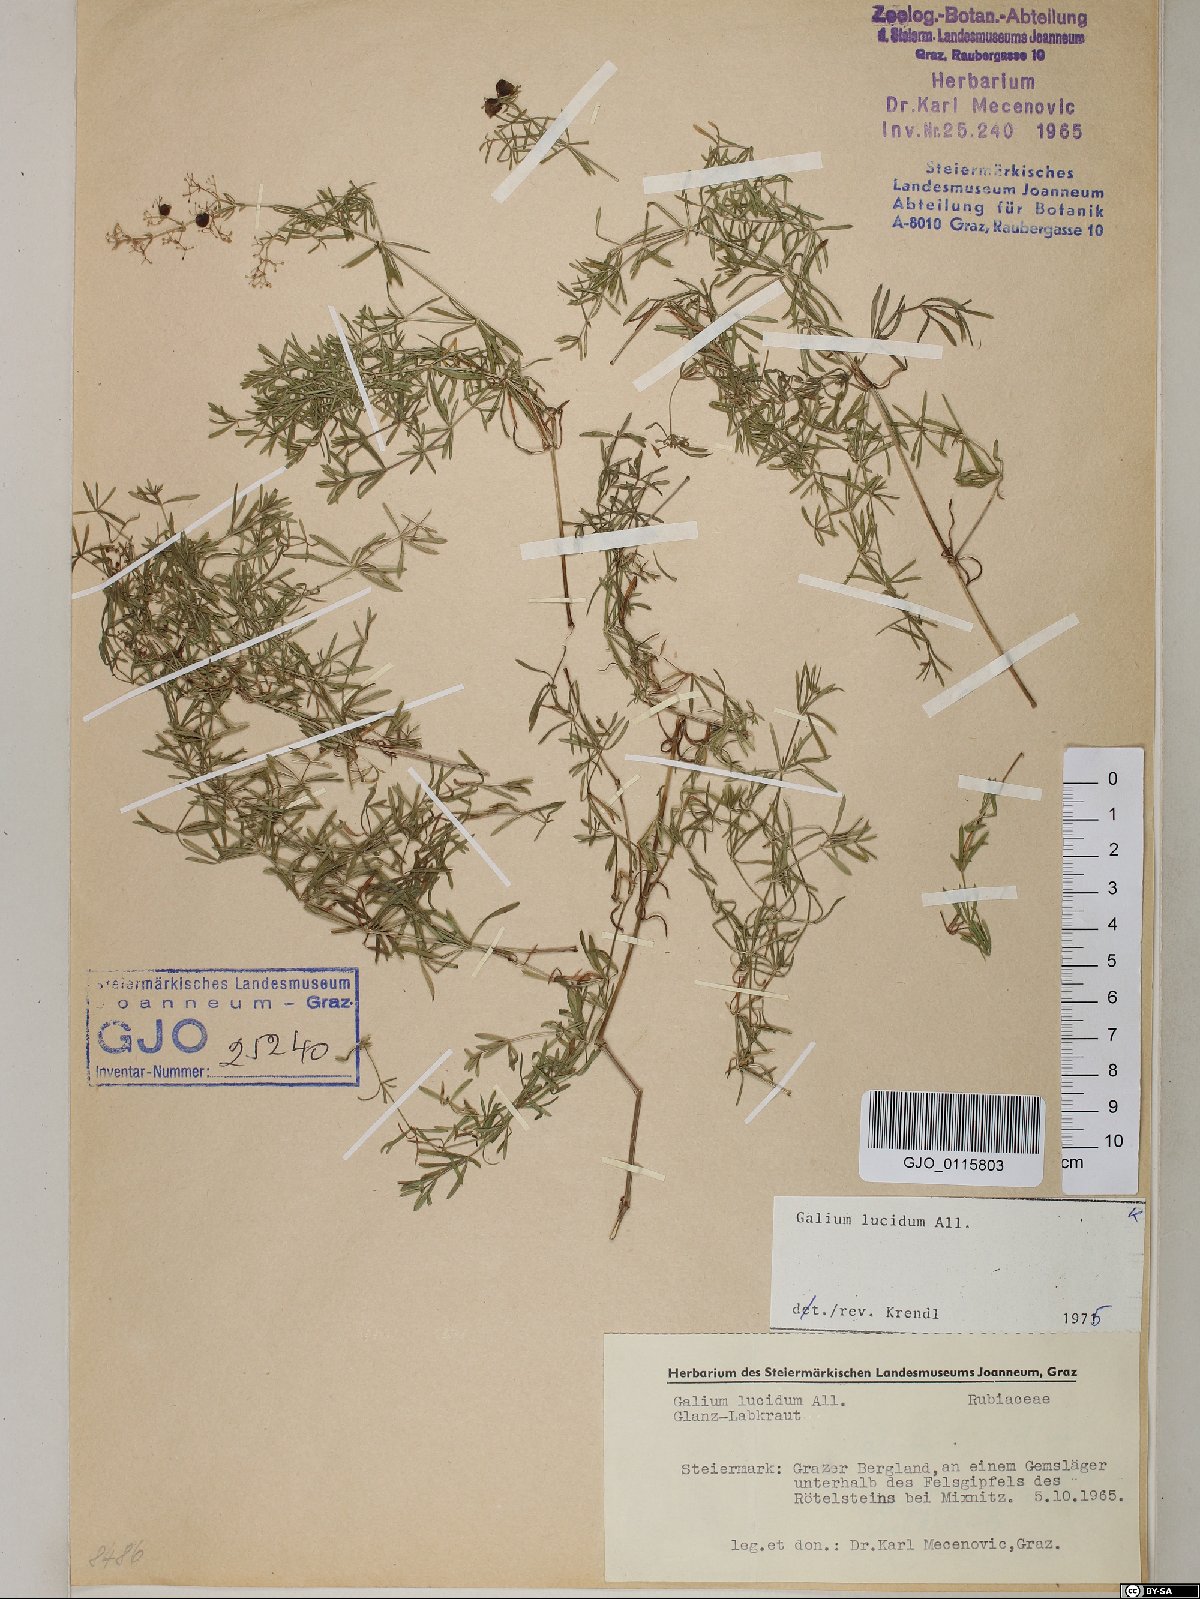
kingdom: Plantae
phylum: Tracheophyta
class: Magnoliopsida
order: Gentianales
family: Rubiaceae
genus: Galium
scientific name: Galium lucidum
